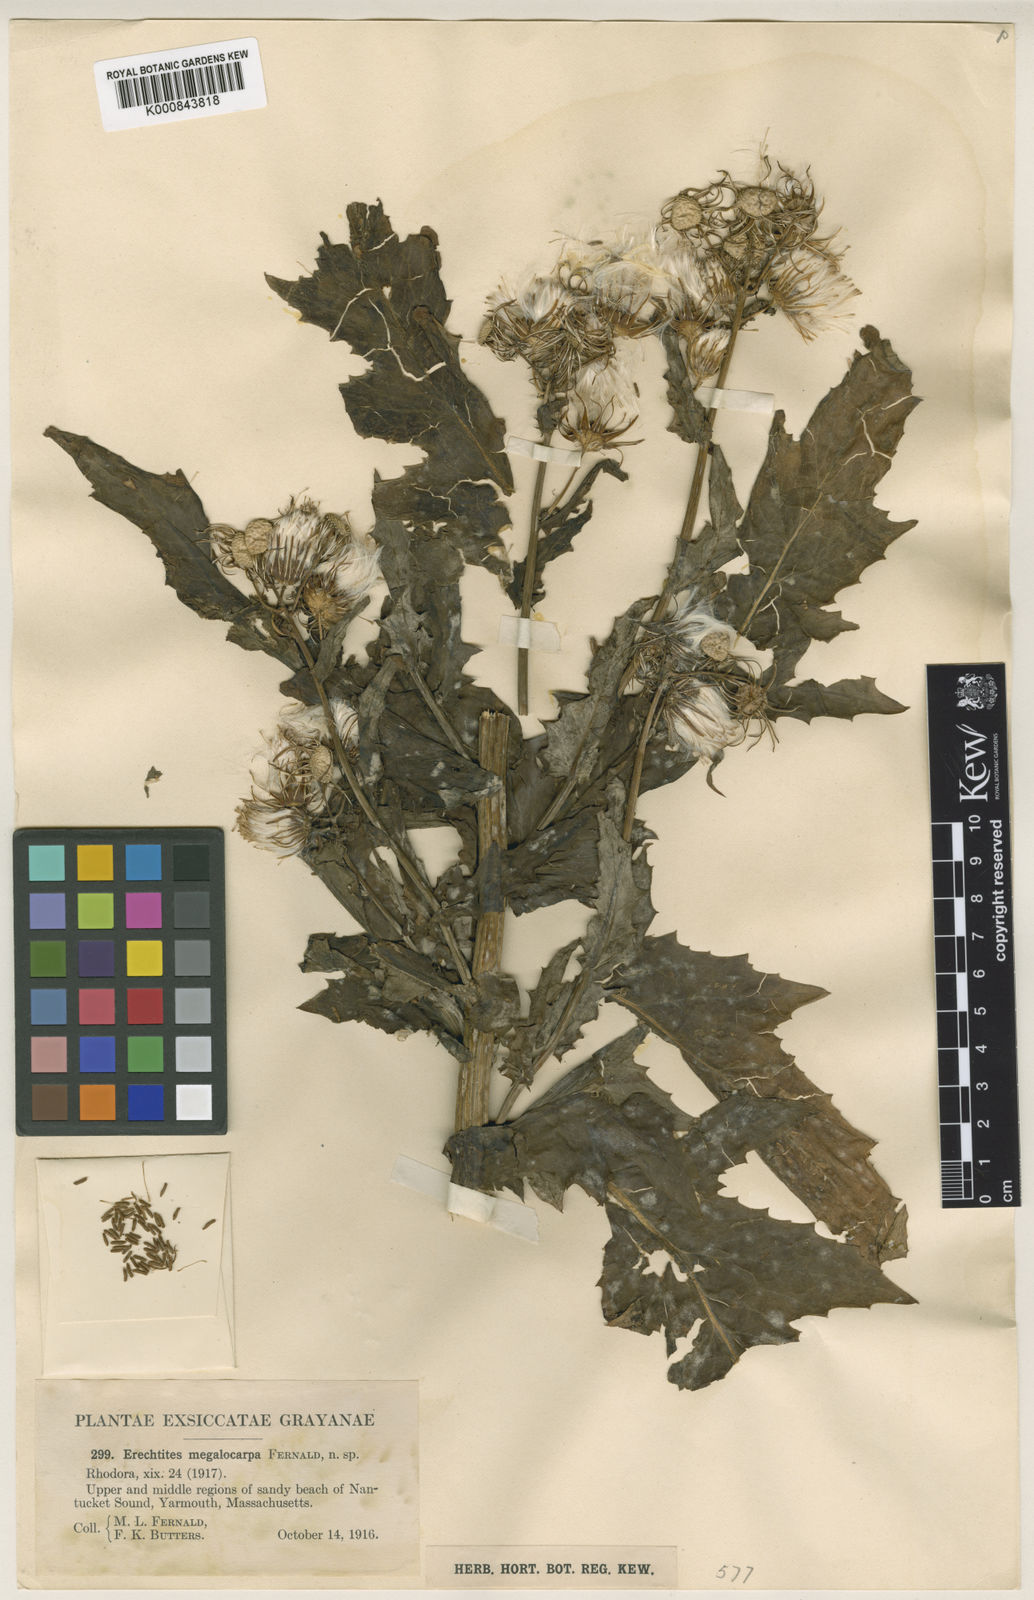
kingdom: Plantae
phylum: Tracheophyta
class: Magnoliopsida
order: Asterales
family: Asteraceae
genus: Erechtites
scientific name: Erechtites hieraciifolius
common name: American burnweed
